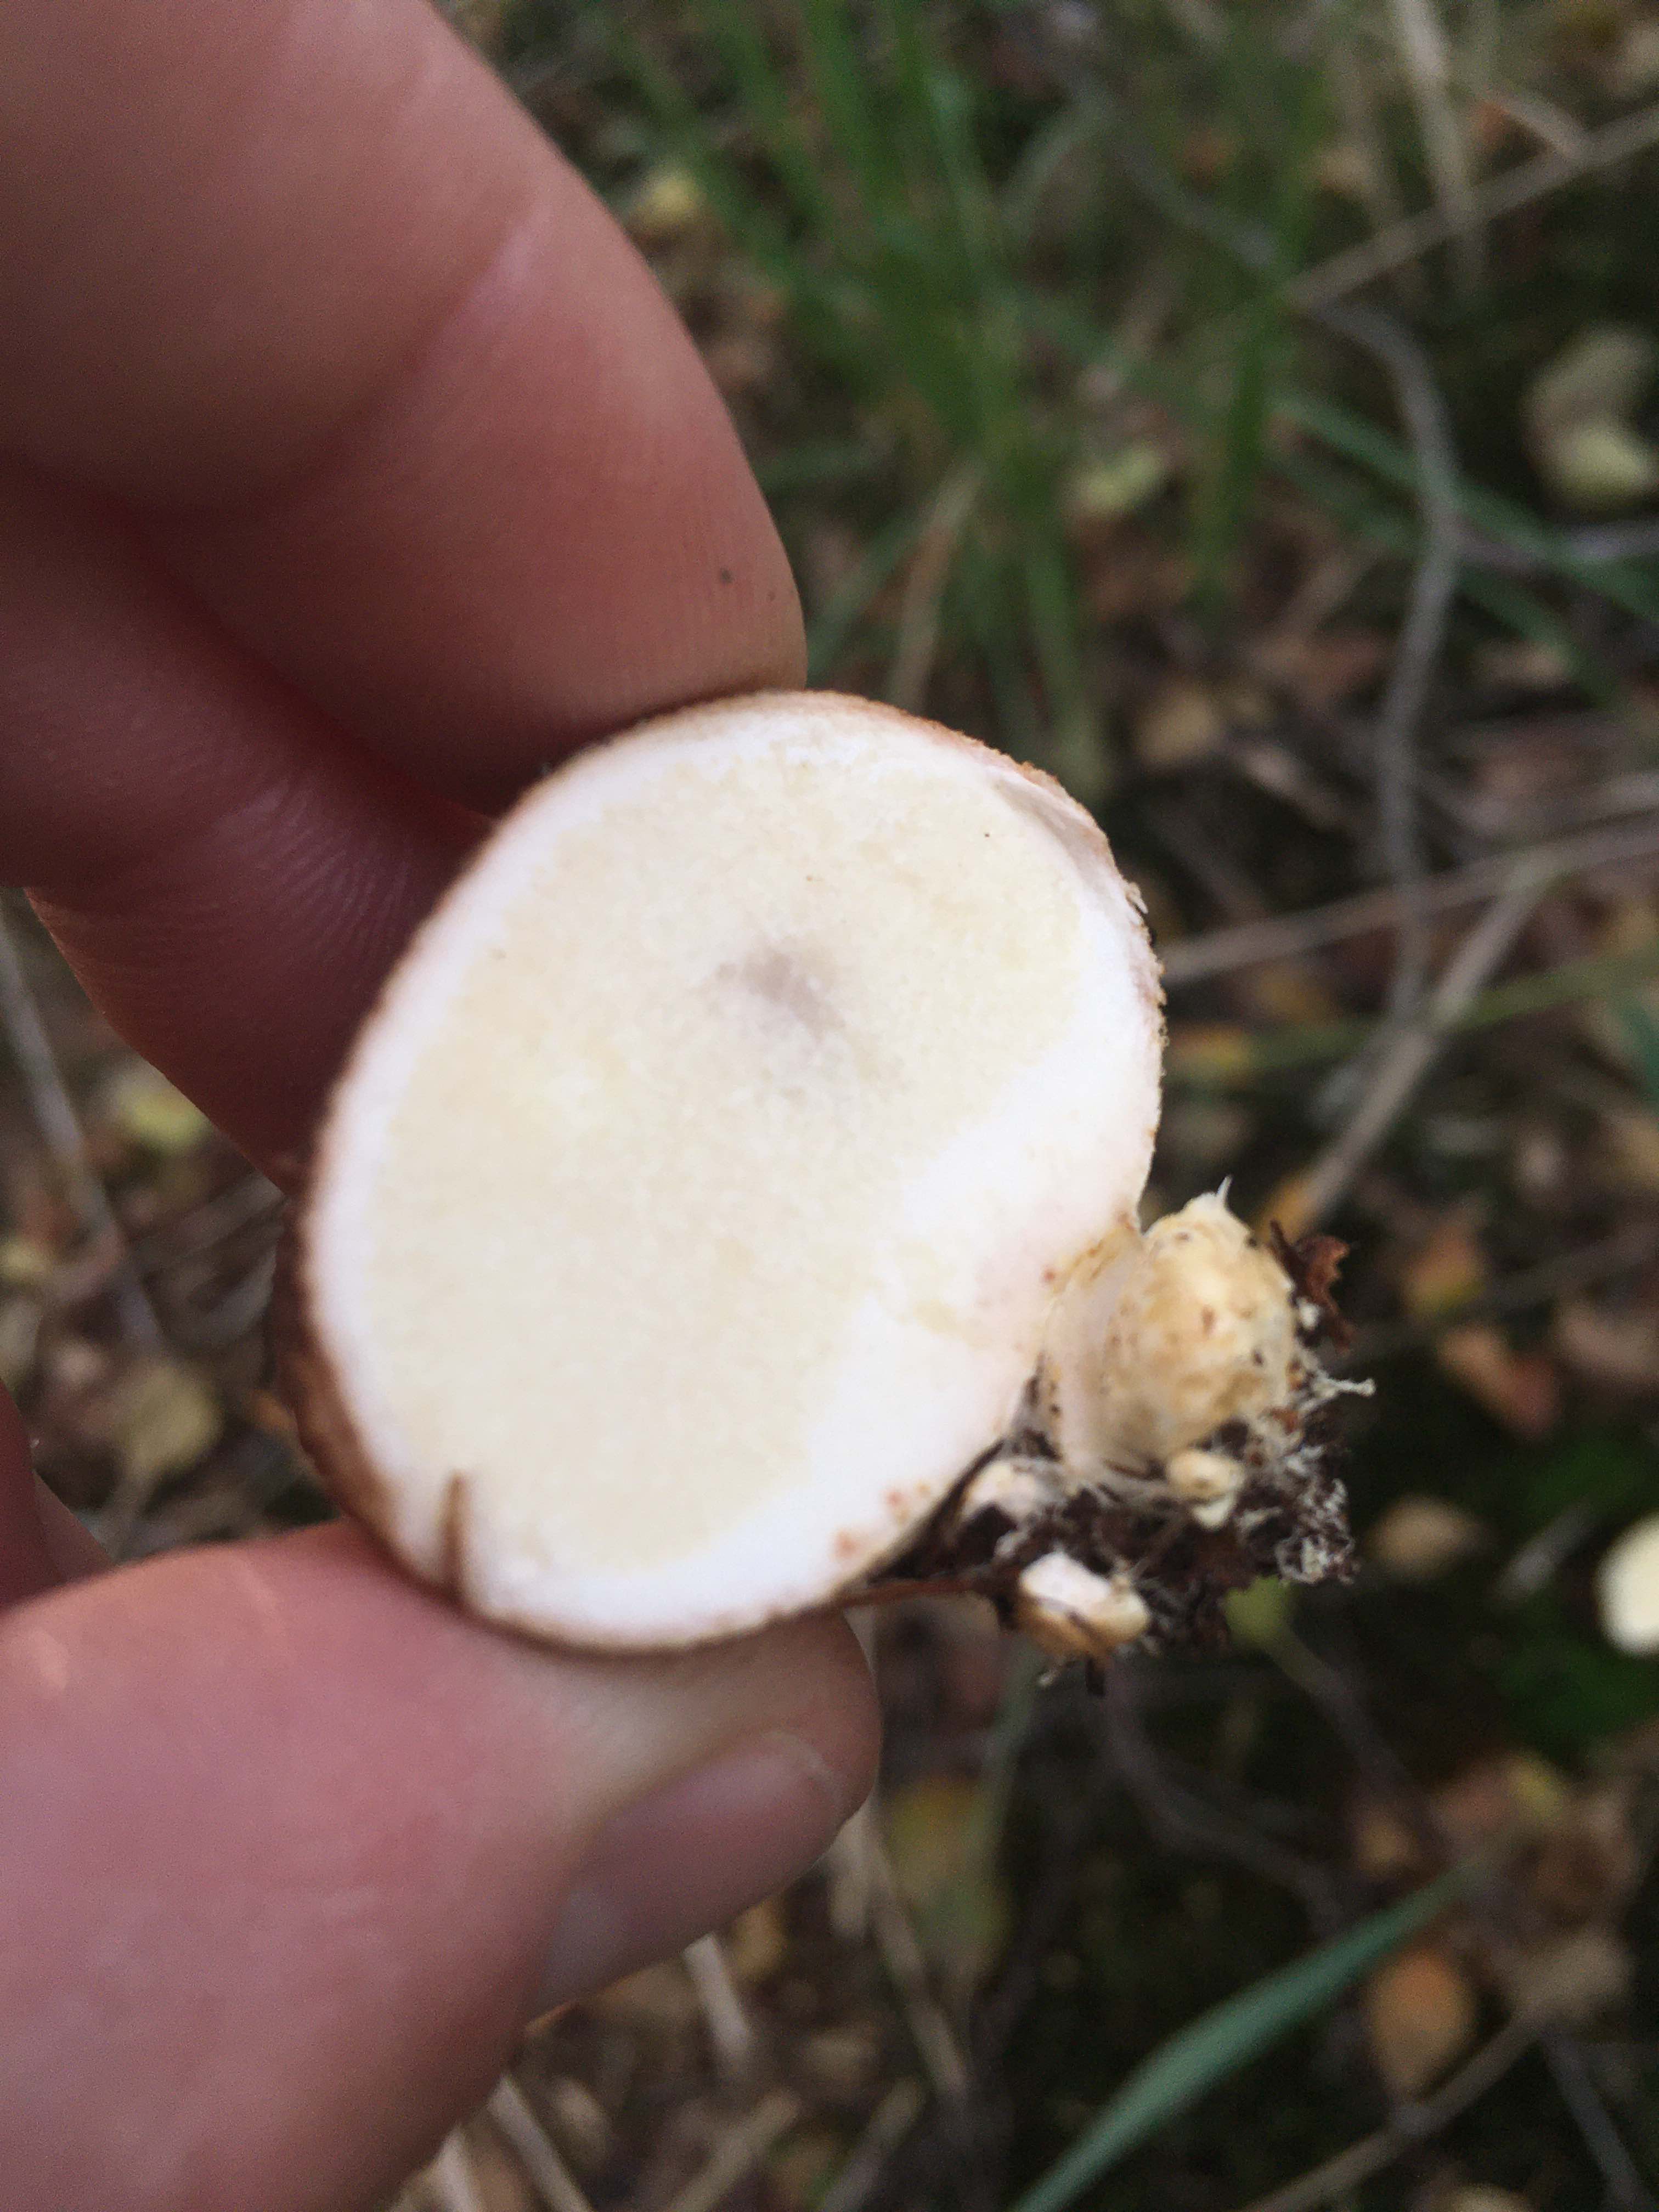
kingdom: Fungi
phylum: Basidiomycota
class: Agaricomycetes
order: Boletales
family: Sclerodermataceae
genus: Scleroderma
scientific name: Scleroderma citrinum
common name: almindelig bruskbold
